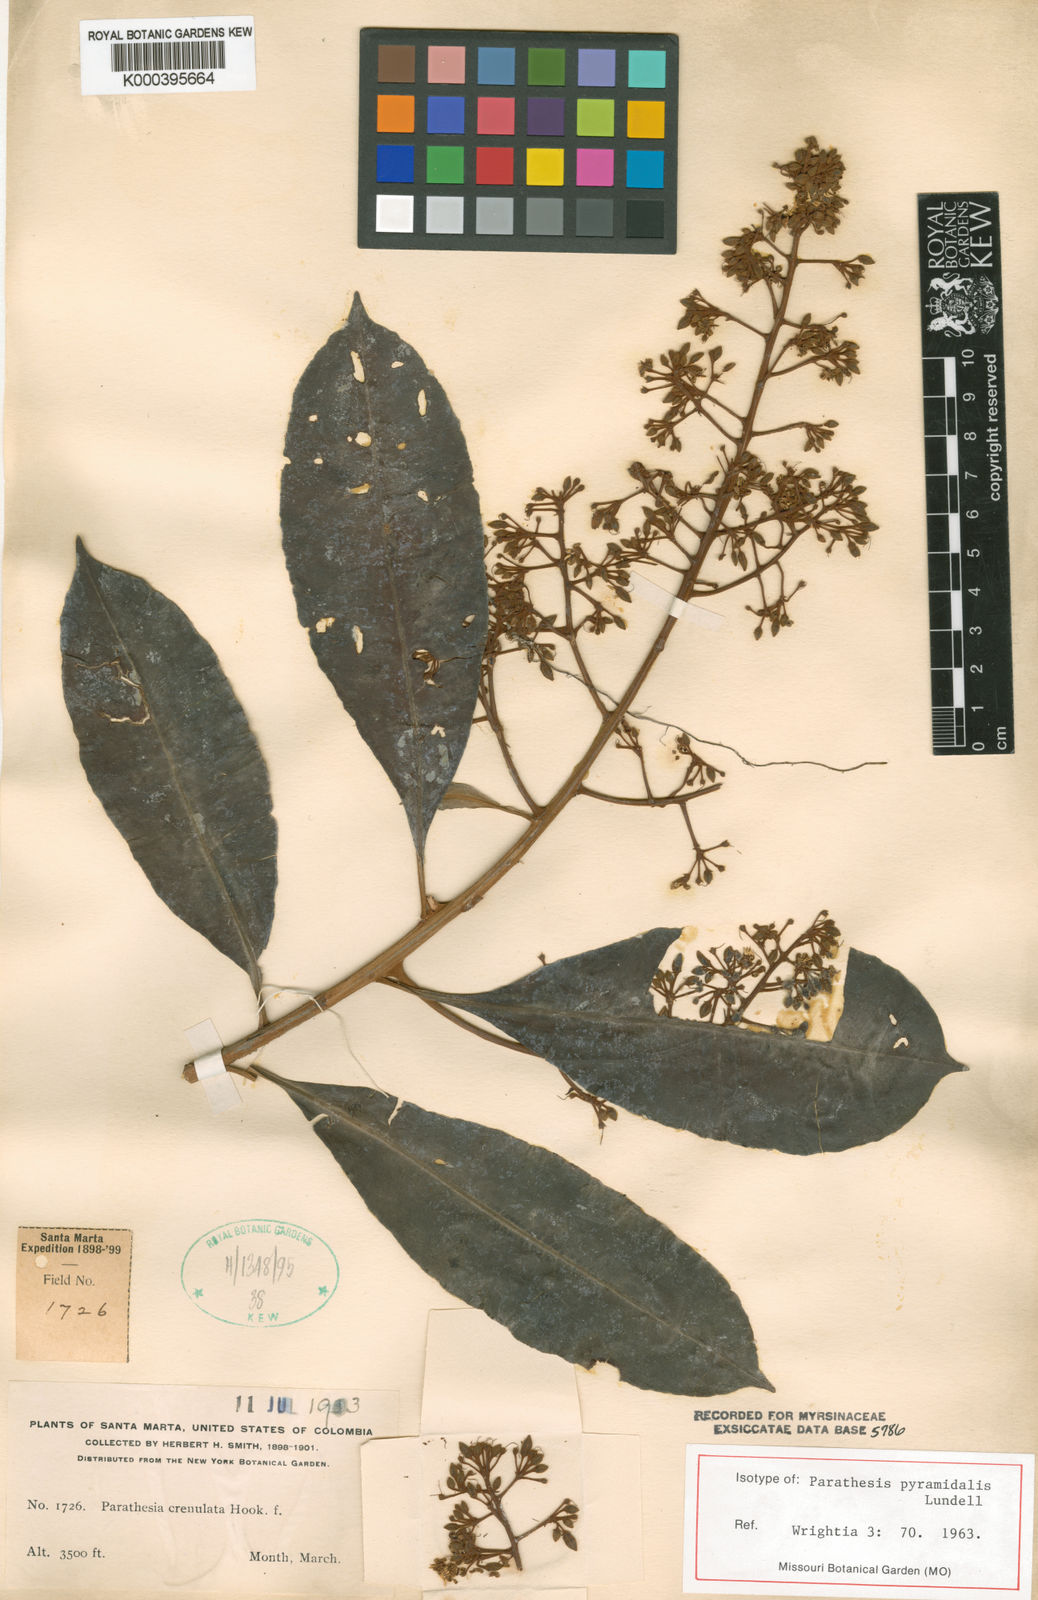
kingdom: Plantae
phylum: Tracheophyta
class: Magnoliopsida
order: Ericales
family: Primulaceae
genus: Parathesis
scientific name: Parathesis pyramidalis
